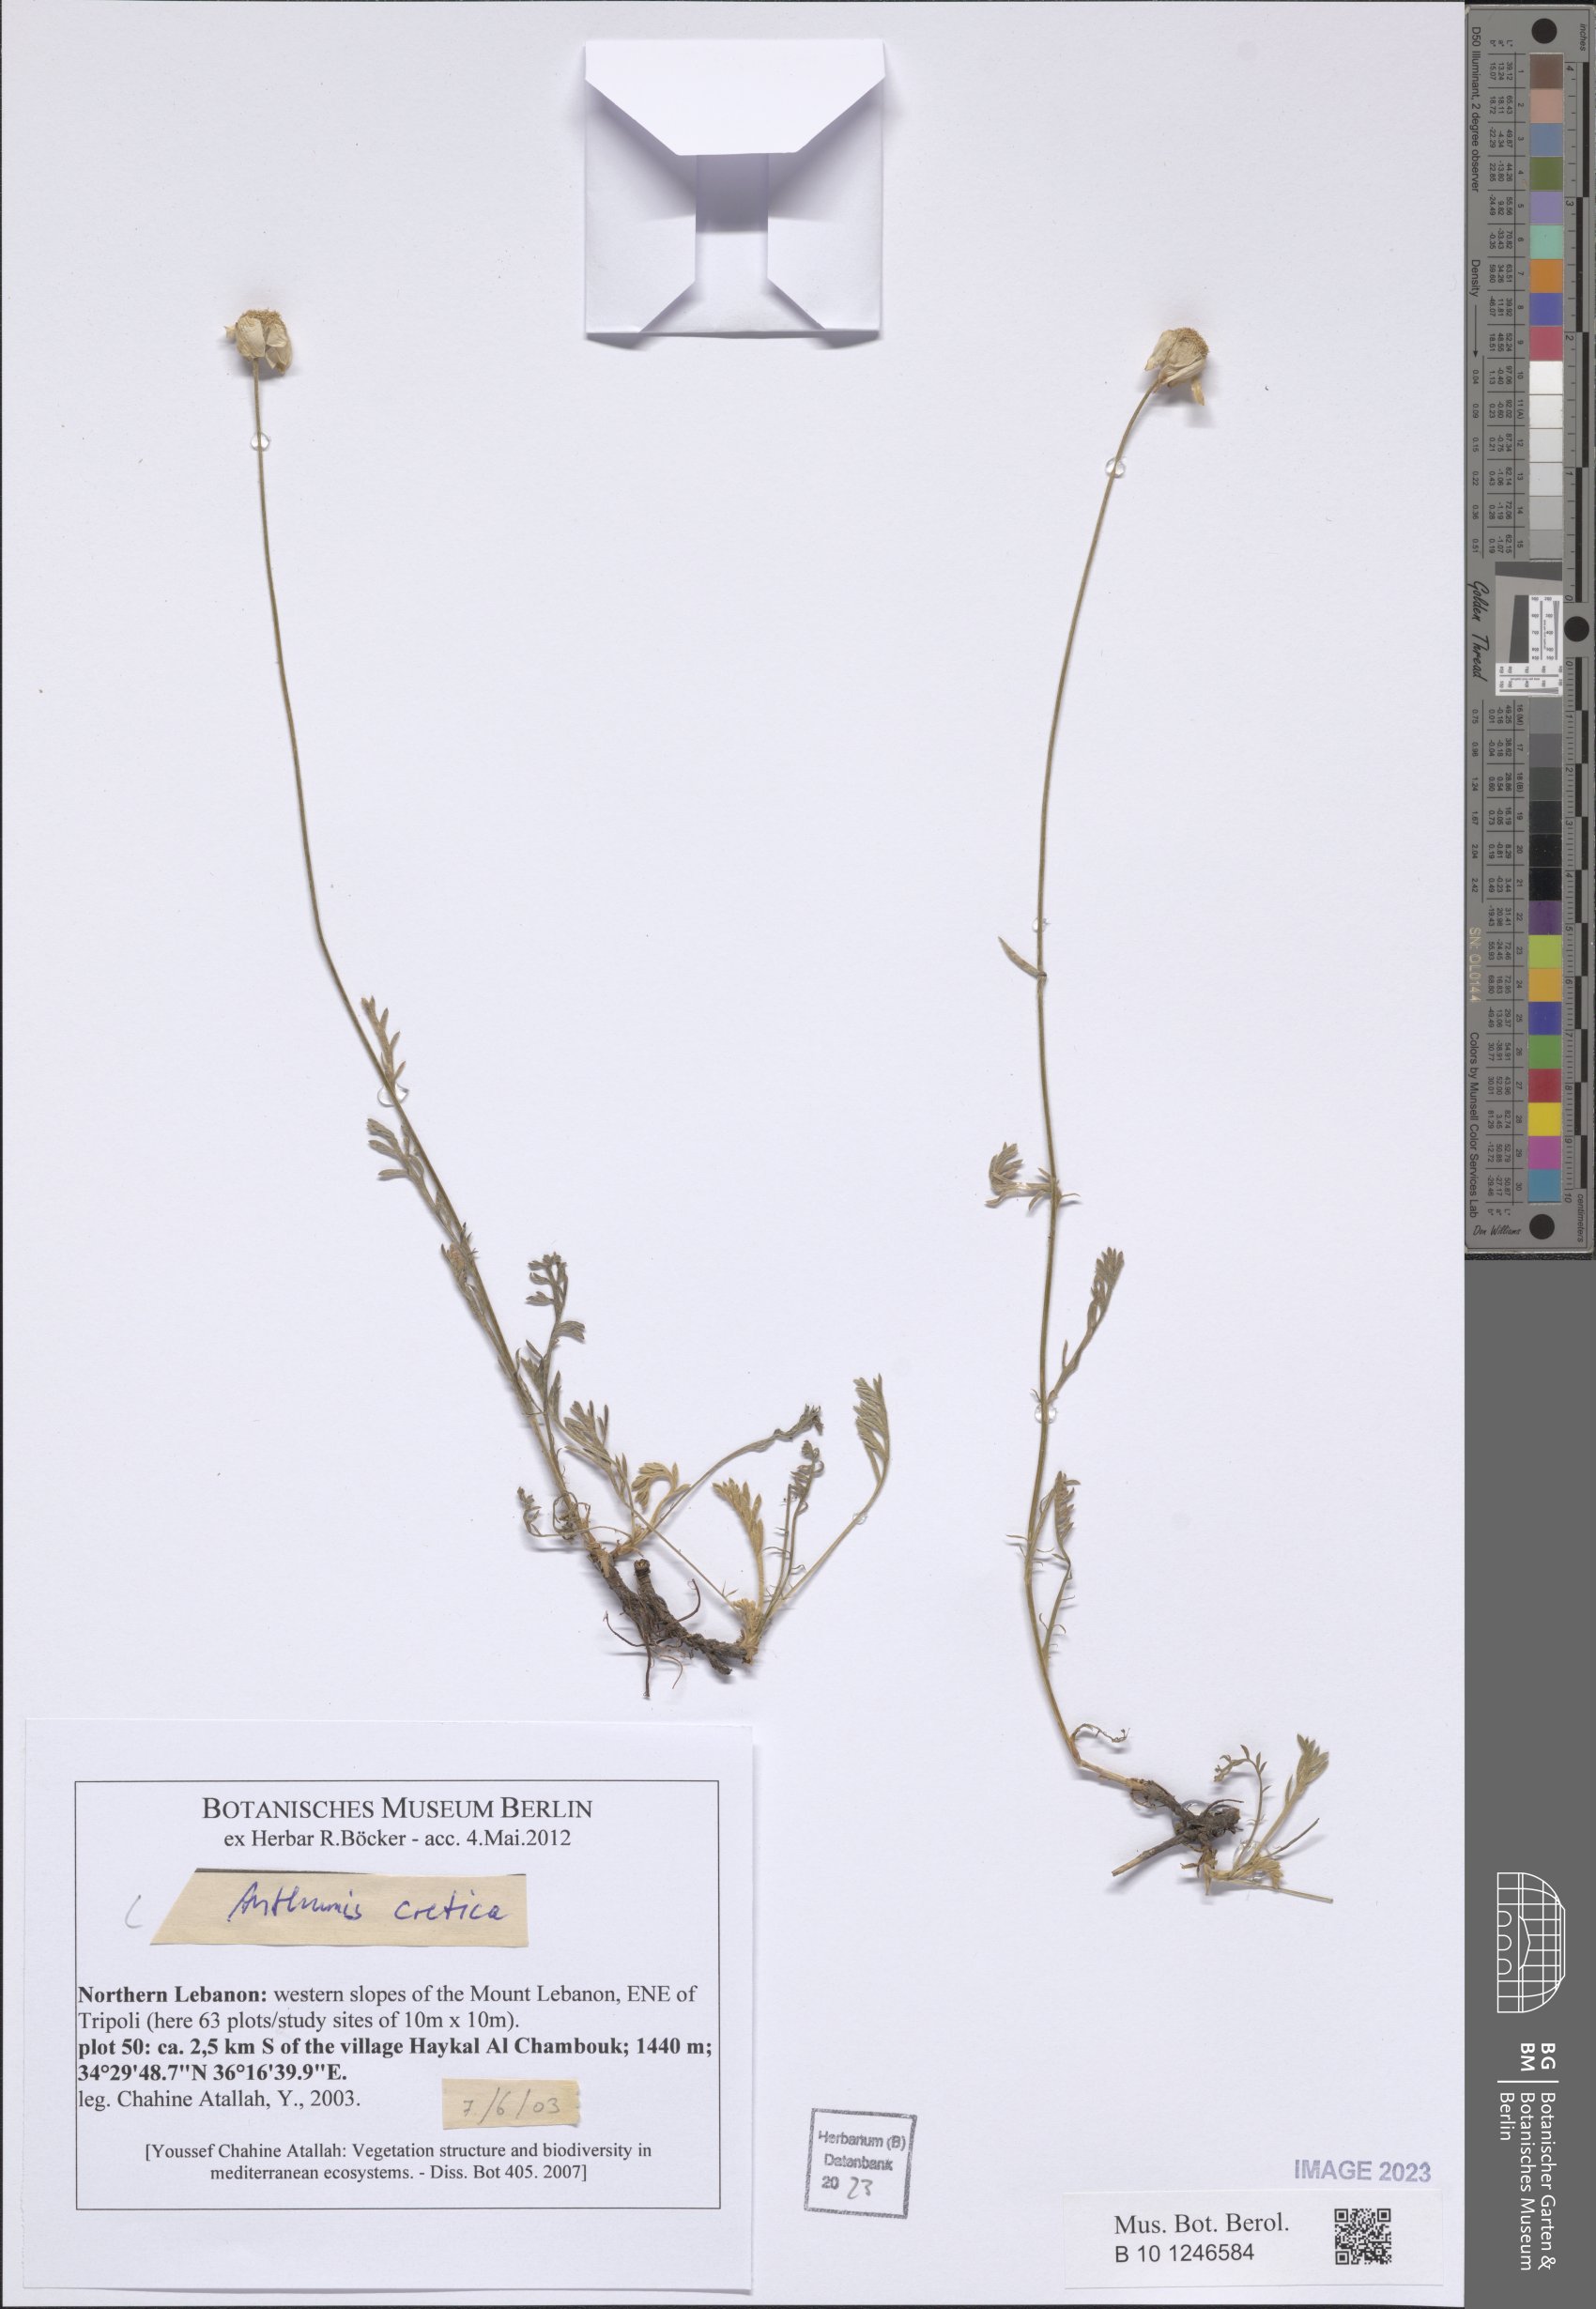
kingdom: Plantae
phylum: Tracheophyta
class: Magnoliopsida
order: Asterales
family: Asteraceae
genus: Anthemis
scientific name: Anthemis cretica
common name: Mountain dog-daisy
